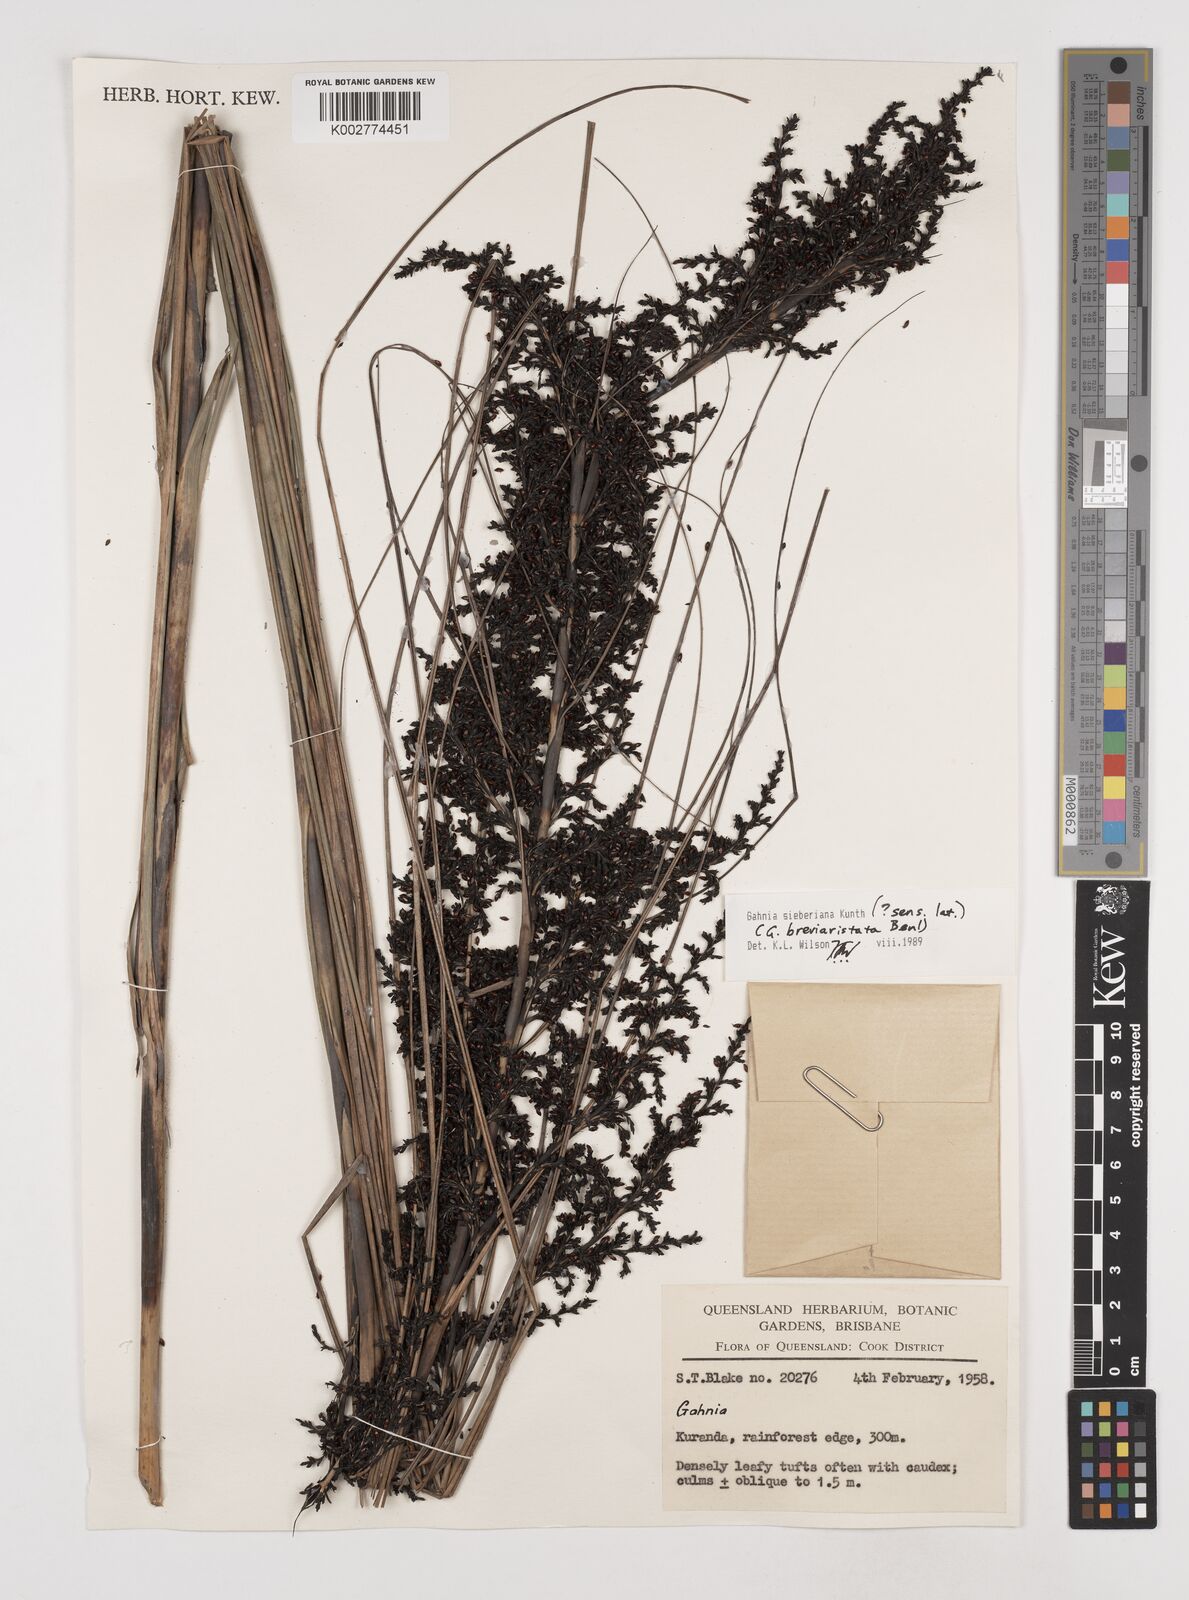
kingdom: Plantae
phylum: Tracheophyta
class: Liliopsida
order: Poales
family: Cyperaceae
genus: Gahnia
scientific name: Gahnia sieberiana
